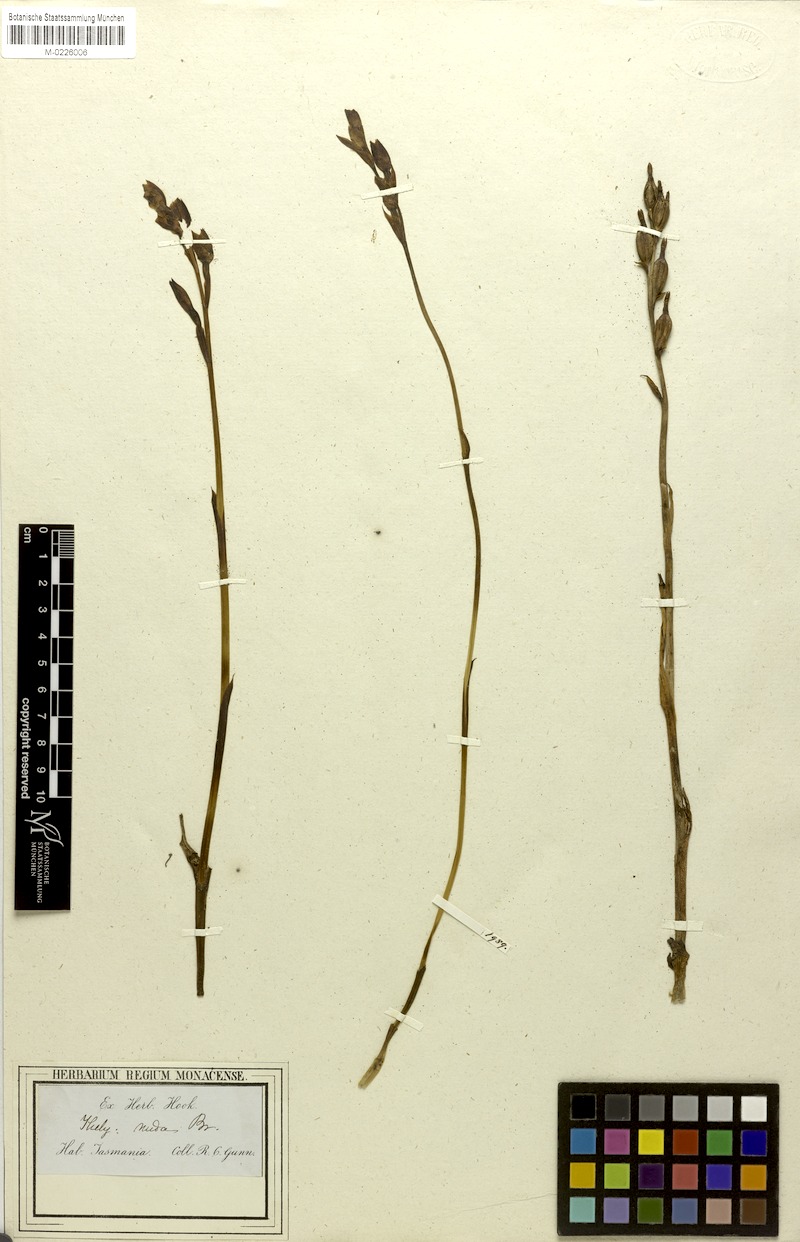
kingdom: Plantae
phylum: Tracheophyta
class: Liliopsida
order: Asparagales
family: Orchidaceae
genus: Thelymitra
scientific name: Thelymitra imbricata
